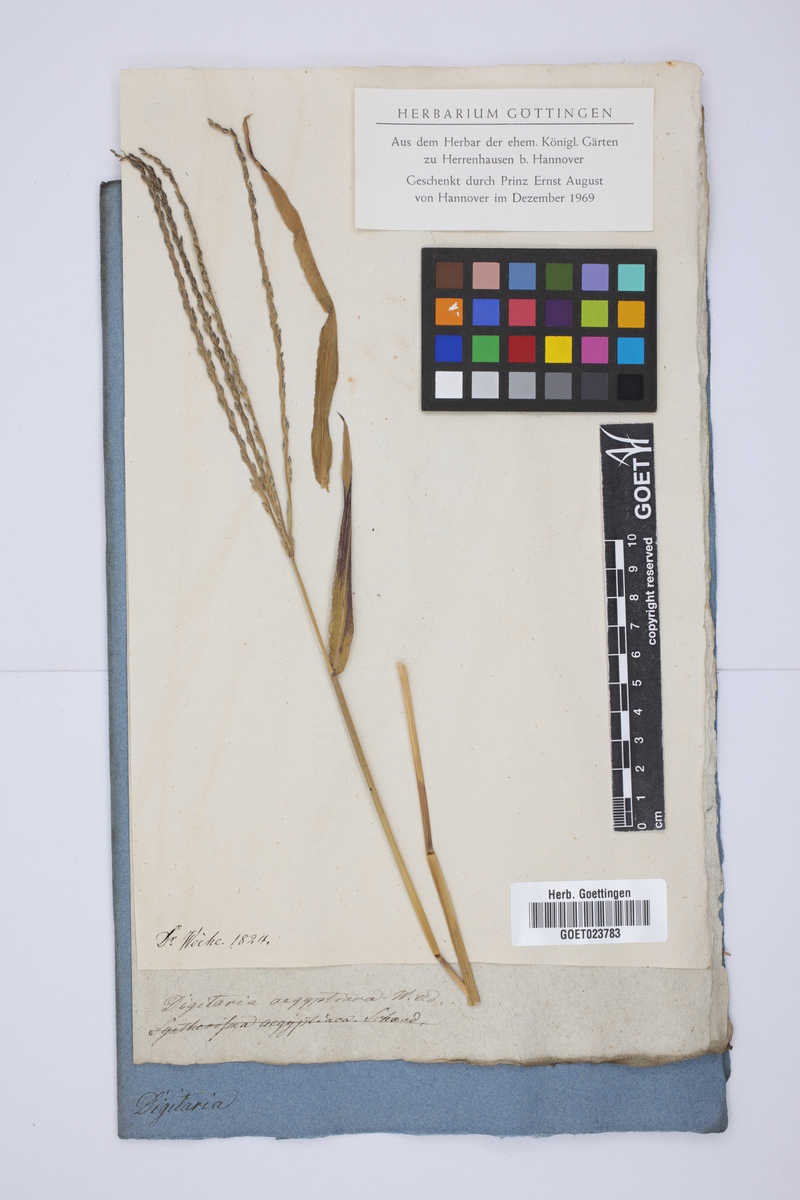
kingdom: Plantae
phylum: Tracheophyta
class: Liliopsida
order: Poales
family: Poaceae
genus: Digitaria
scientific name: Digitaria sanguinalis
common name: Hairy crabgrass
